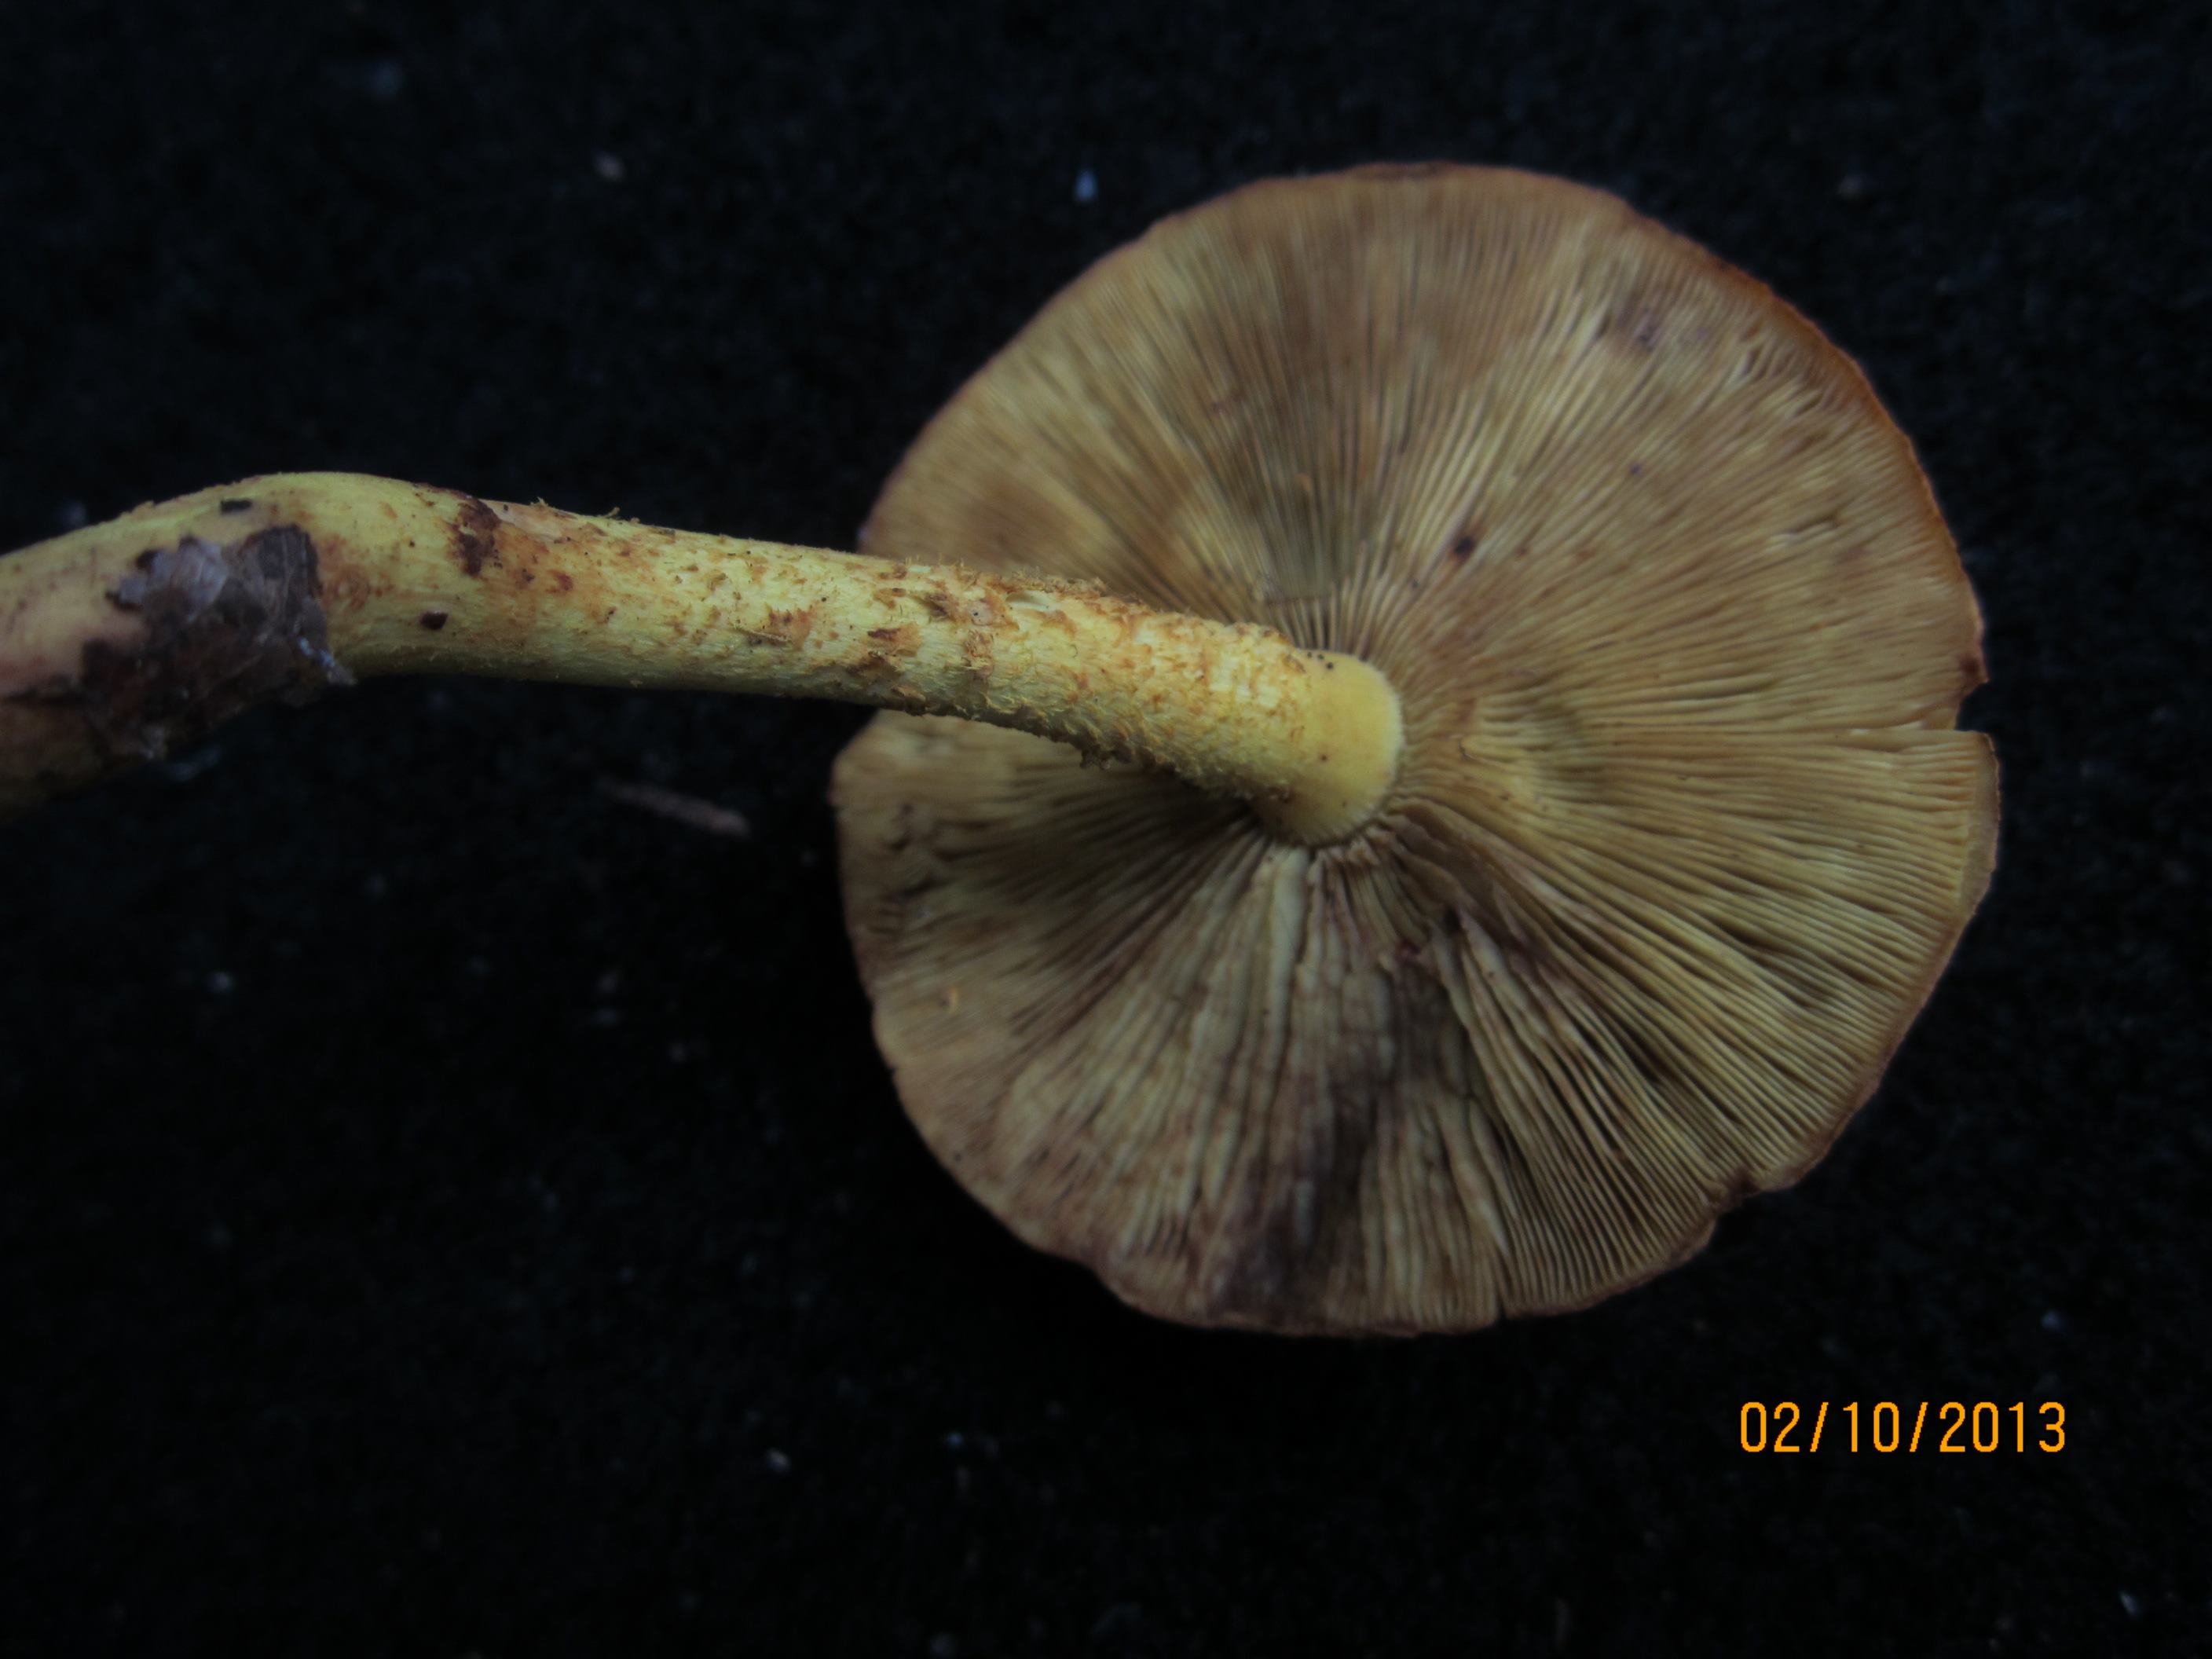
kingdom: Fungi
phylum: Basidiomycota
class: Agaricomycetes
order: Agaricales
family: Strophariaceae
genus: Pyrrhulomyces
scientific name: Pyrrhulomyces astragalinus
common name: safran-skælhat
